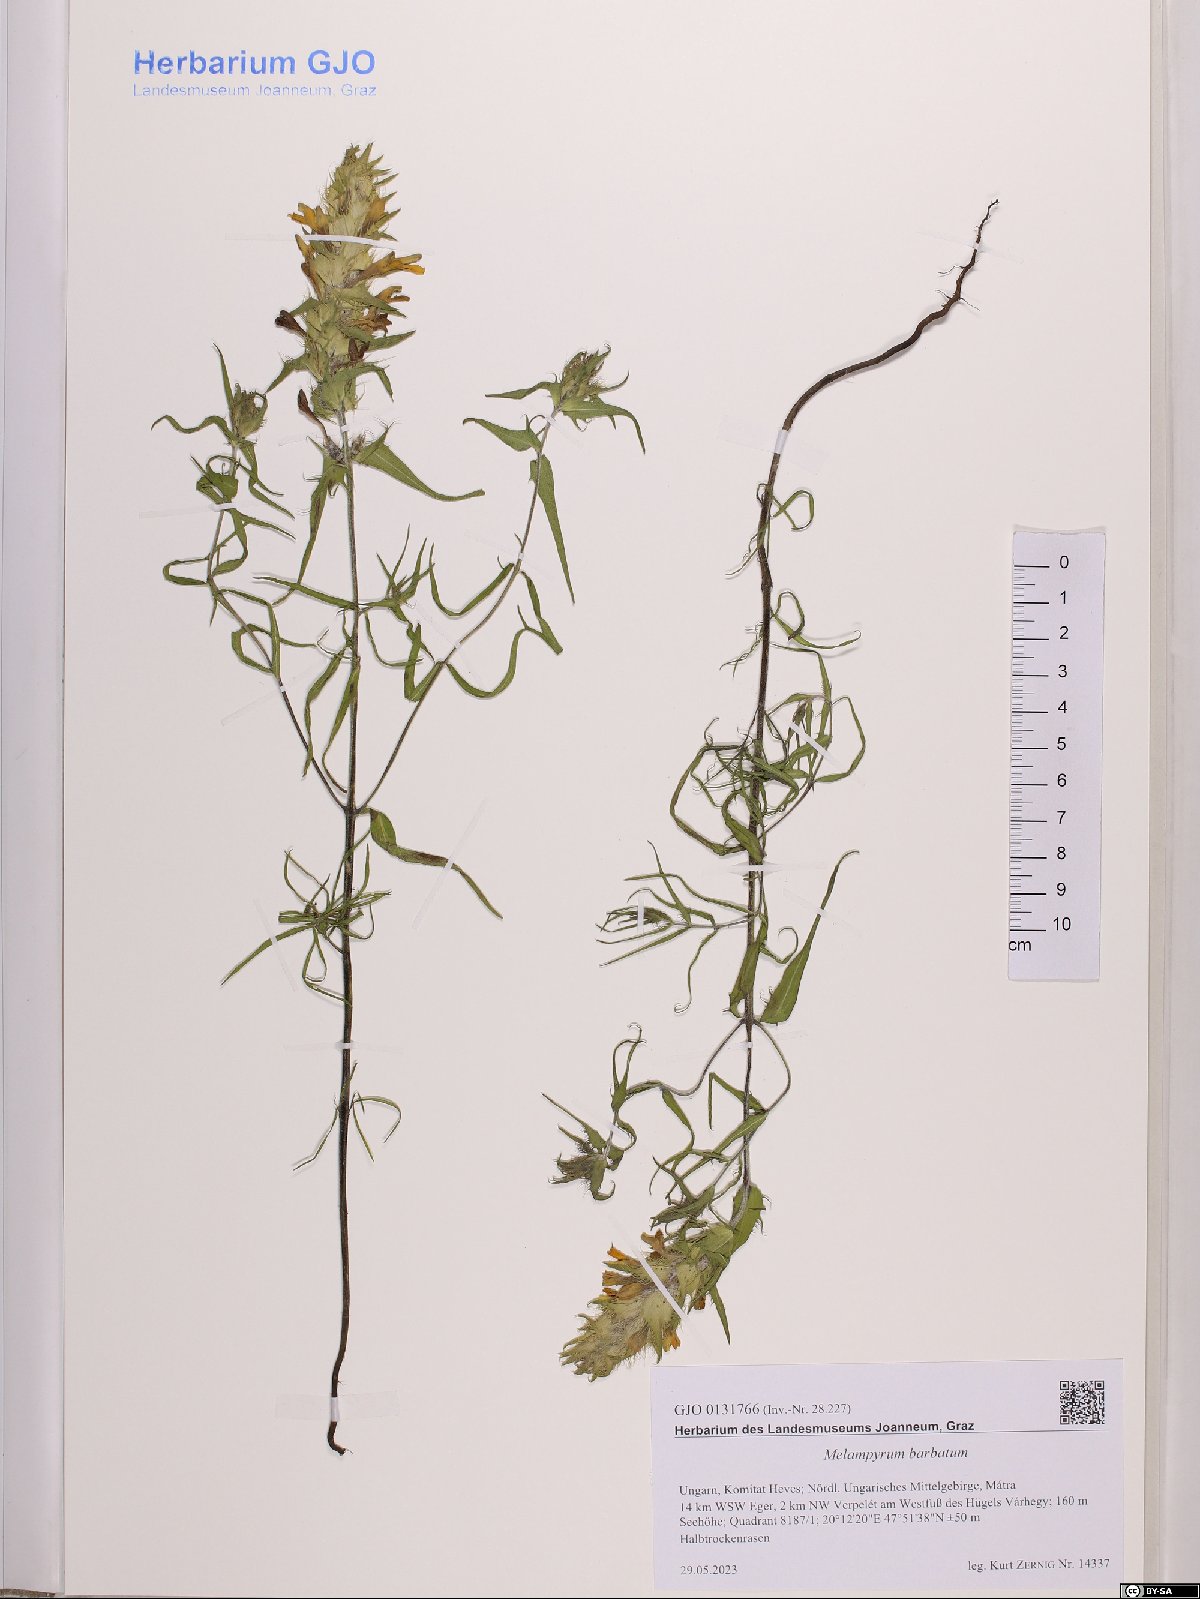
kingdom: Plantae
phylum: Tracheophyta
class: Magnoliopsida
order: Lamiales
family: Orobanchaceae
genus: Melampyrum
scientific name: Melampyrum barbatum
